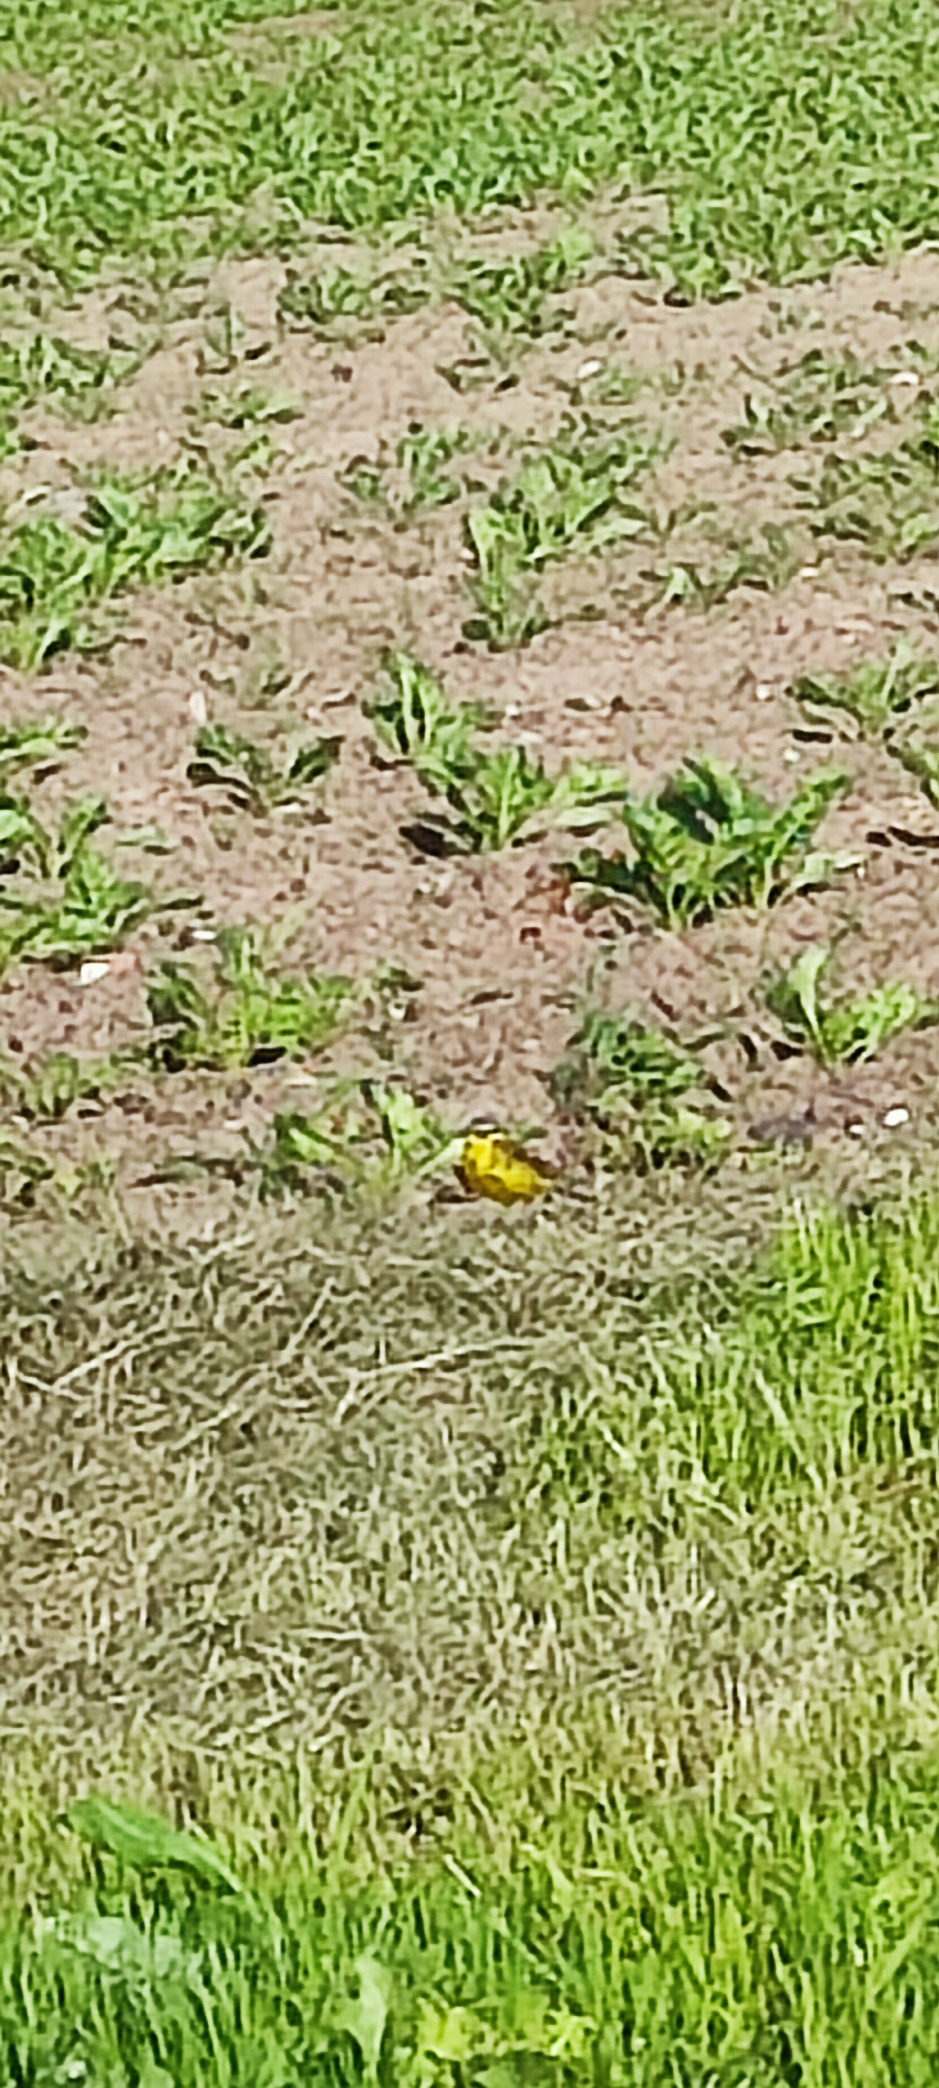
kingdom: Animalia
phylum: Chordata
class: Aves
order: Passeriformes
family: Motacillidae
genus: Motacilla
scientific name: Motacilla flava
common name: Gul vipstjert
